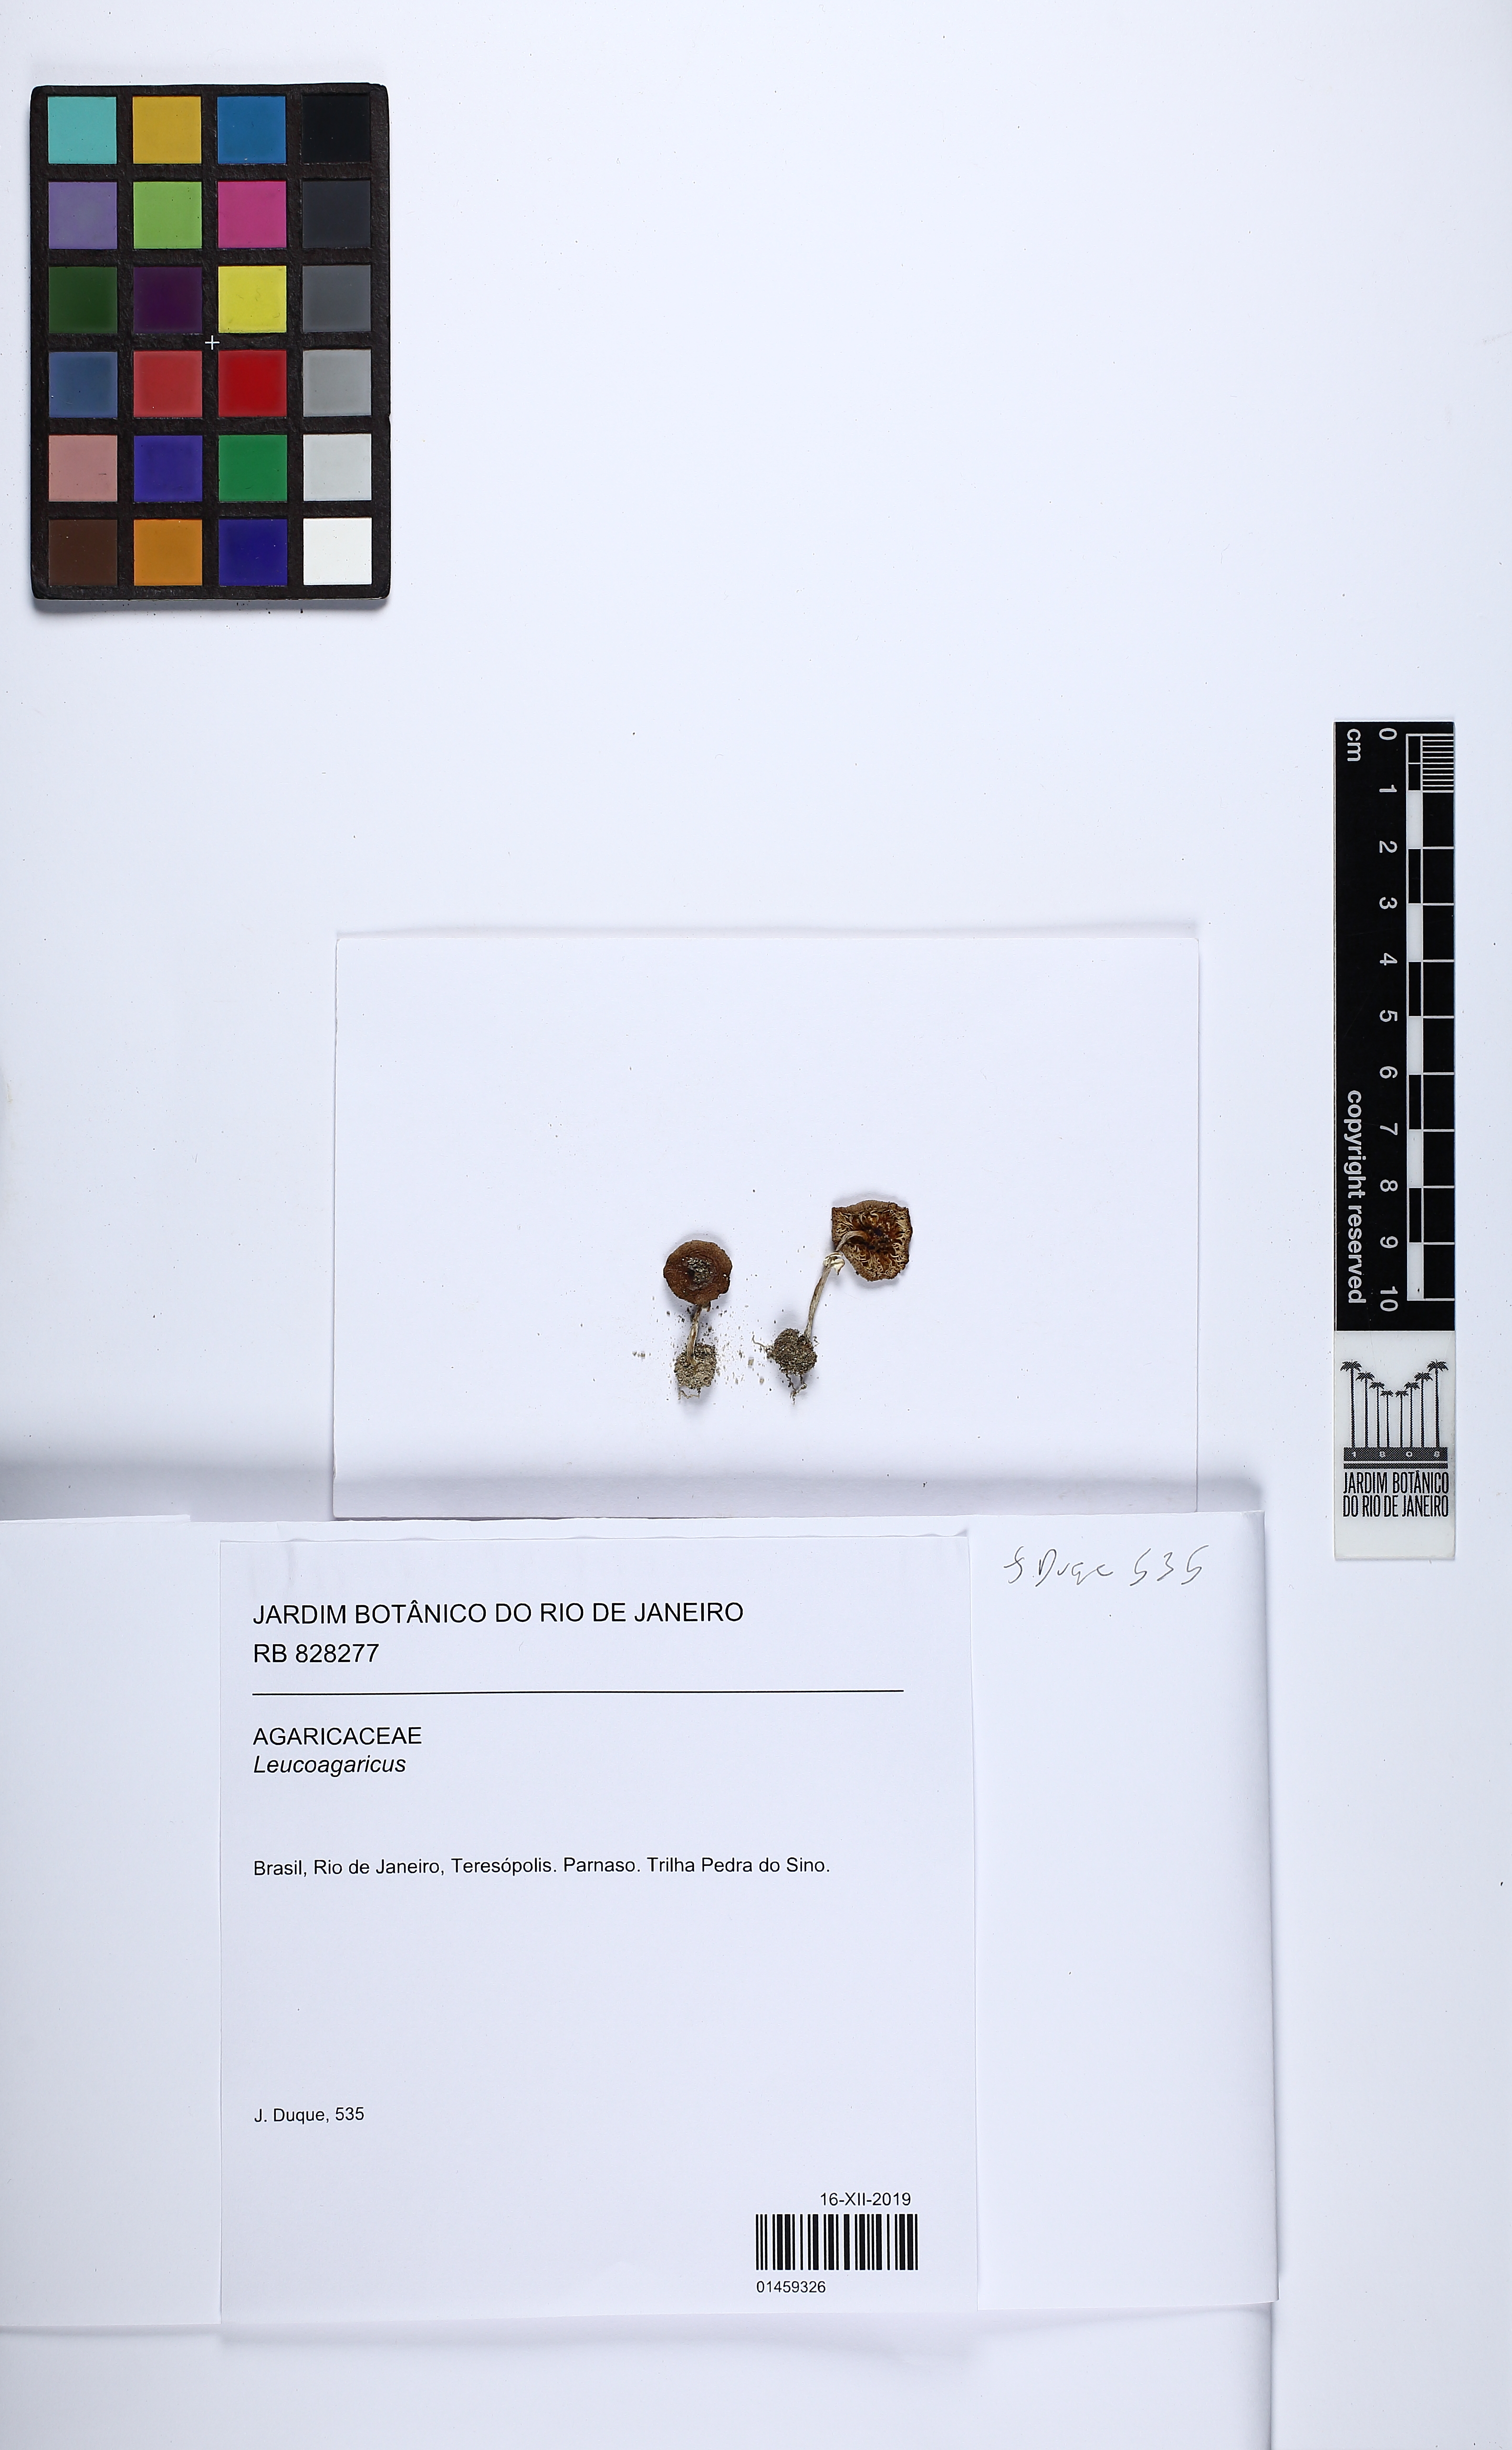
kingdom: Fungi
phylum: Basidiomycota
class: Agaricomycetes
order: Agaricales
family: Agaricaceae
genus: Leucoagaricus
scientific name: Leucoagaricus
